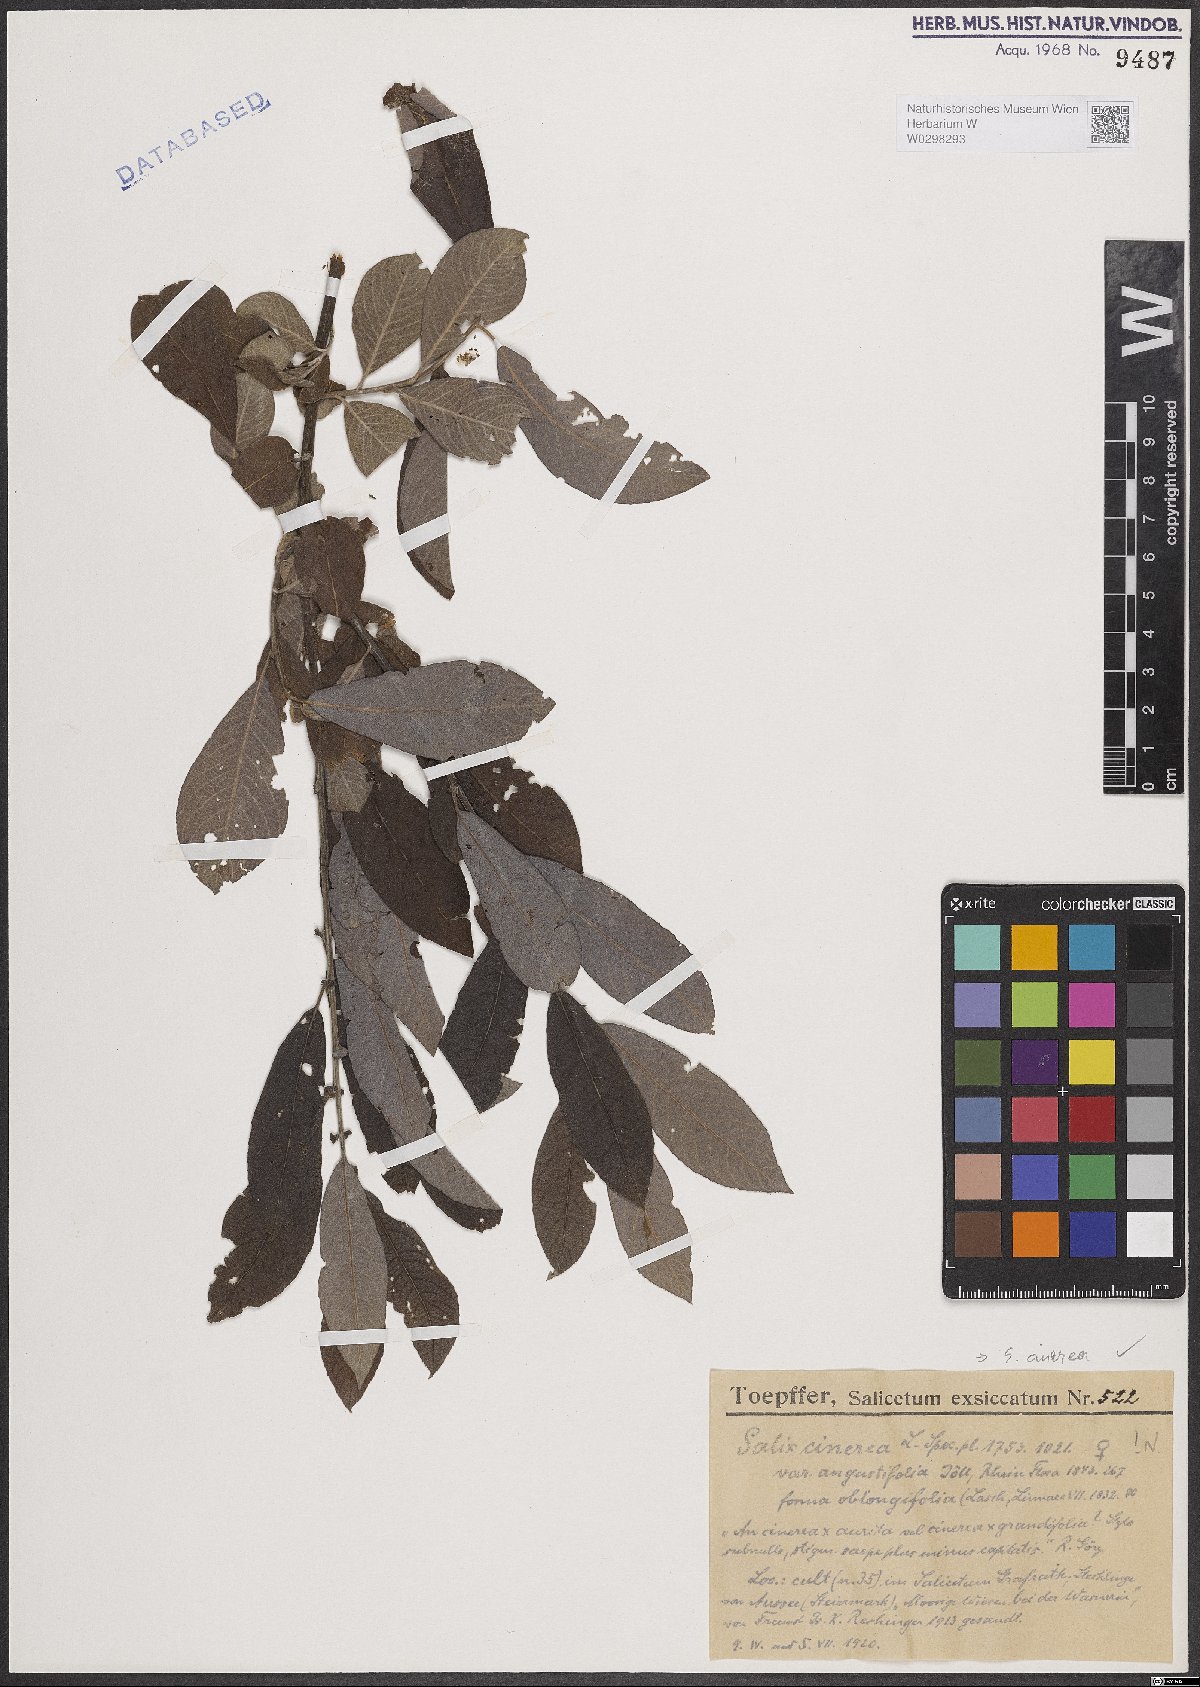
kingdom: Plantae
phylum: Tracheophyta
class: Magnoliopsida
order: Malpighiales
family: Salicaceae
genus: Salix
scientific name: Salix cinerea
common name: Common sallow
